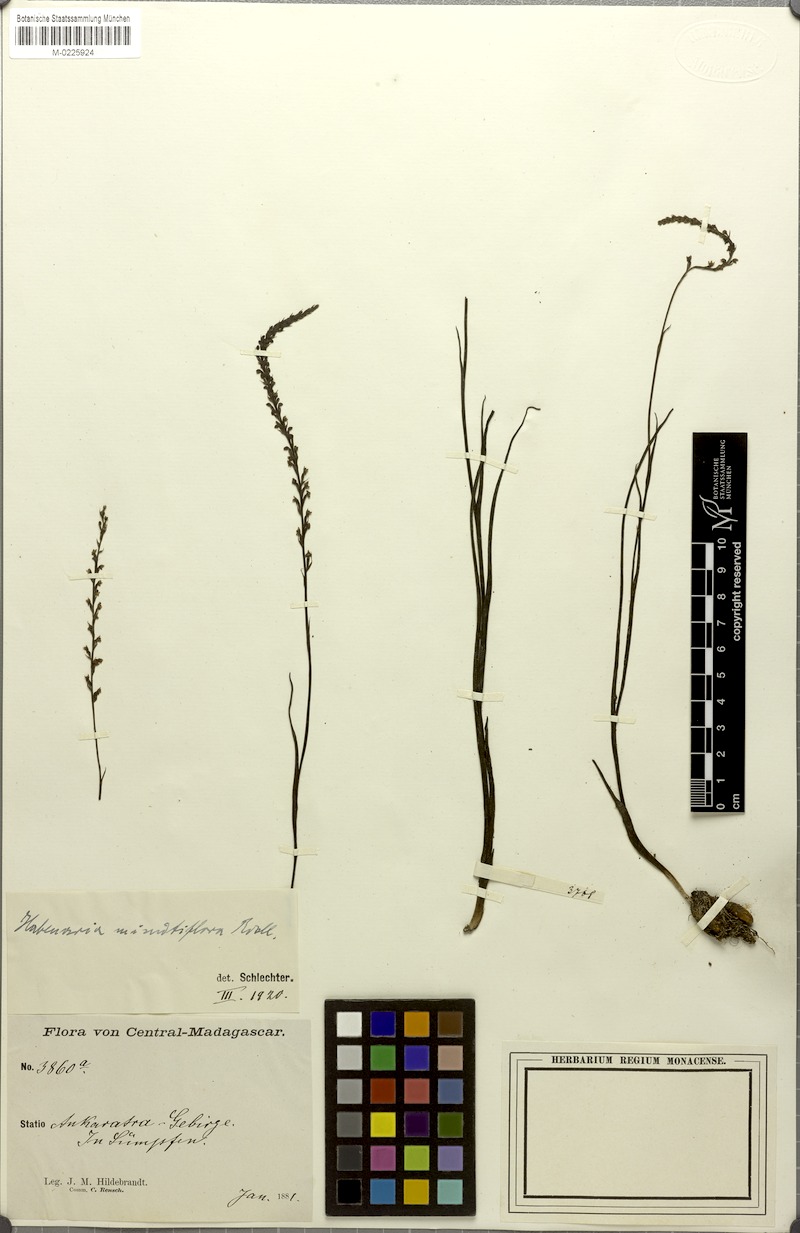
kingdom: Plantae
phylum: Tracheophyta
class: Liliopsida
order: Asparagales
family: Orchidaceae
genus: Tylostigma
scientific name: Tylostigma hildebrandtii
